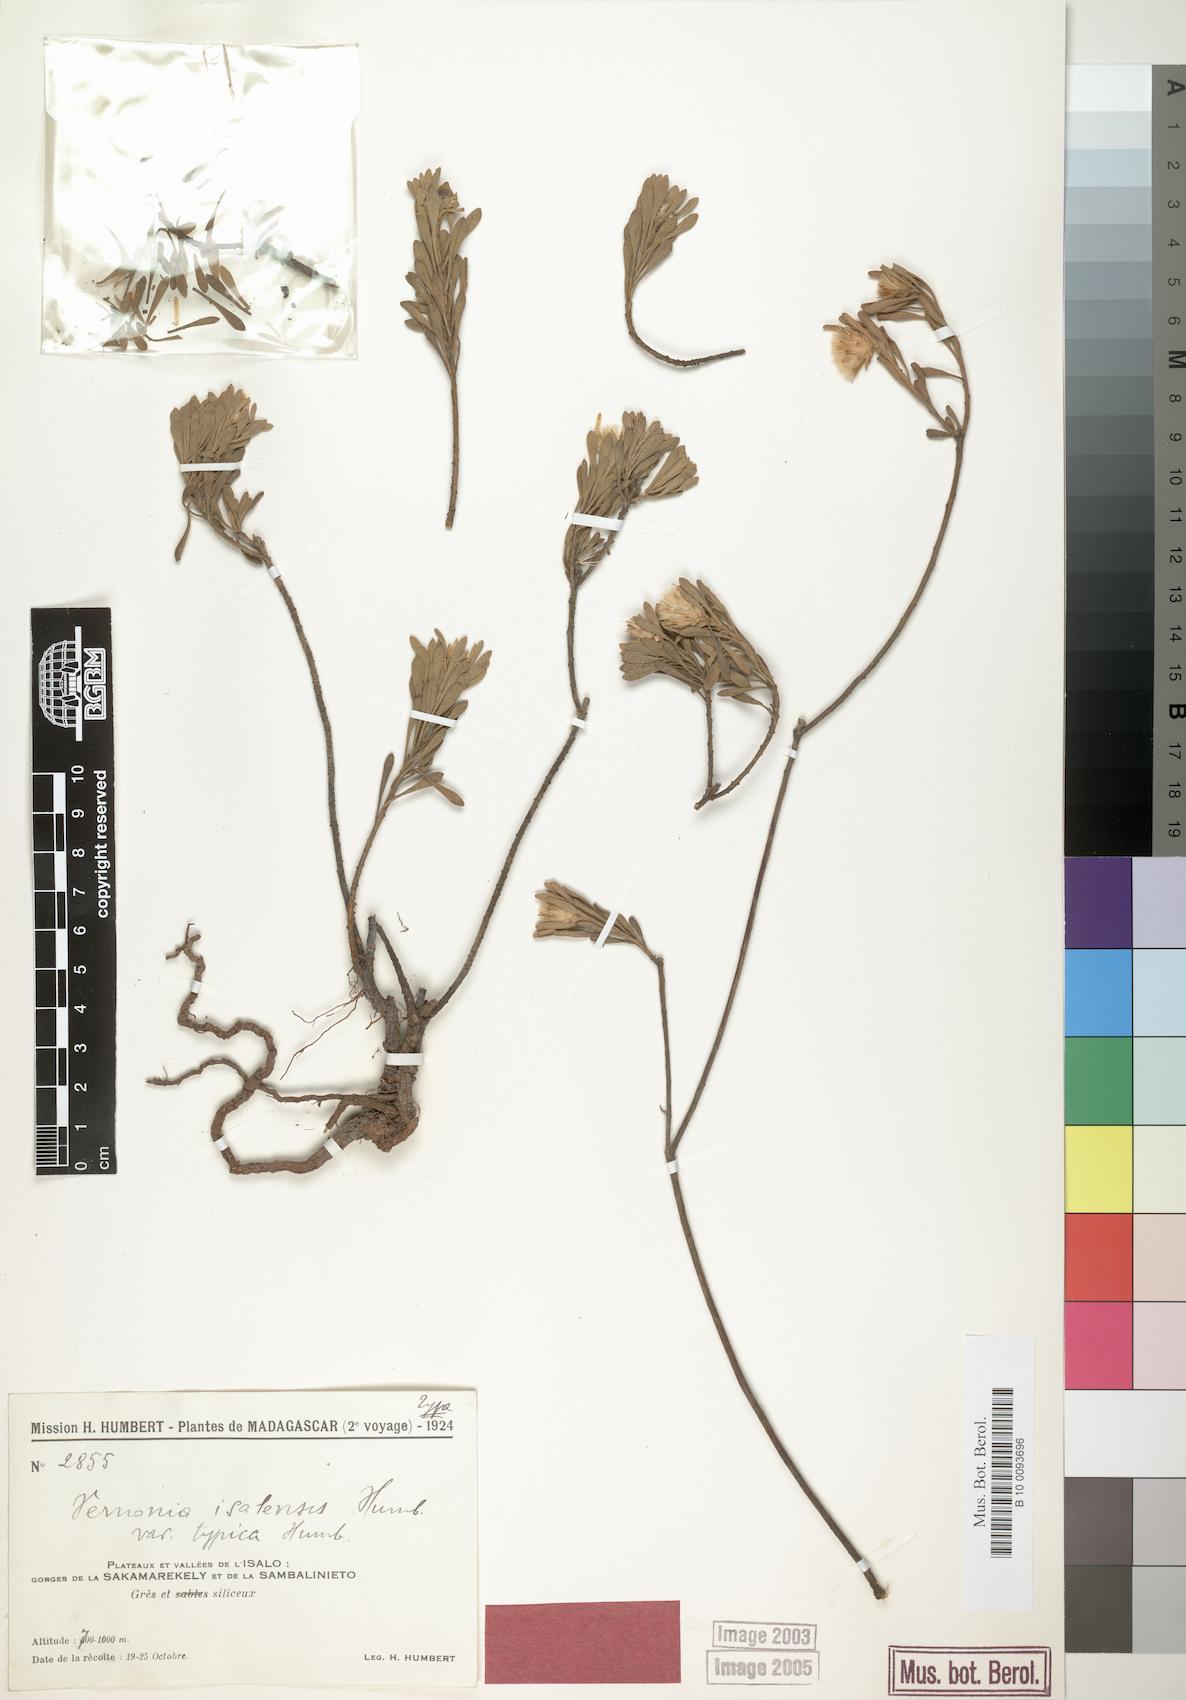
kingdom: Plantae
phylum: Tracheophyta
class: Magnoliopsida
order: Asterales
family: Asteraceae
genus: Vernonia
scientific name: Vernonia isalensis
